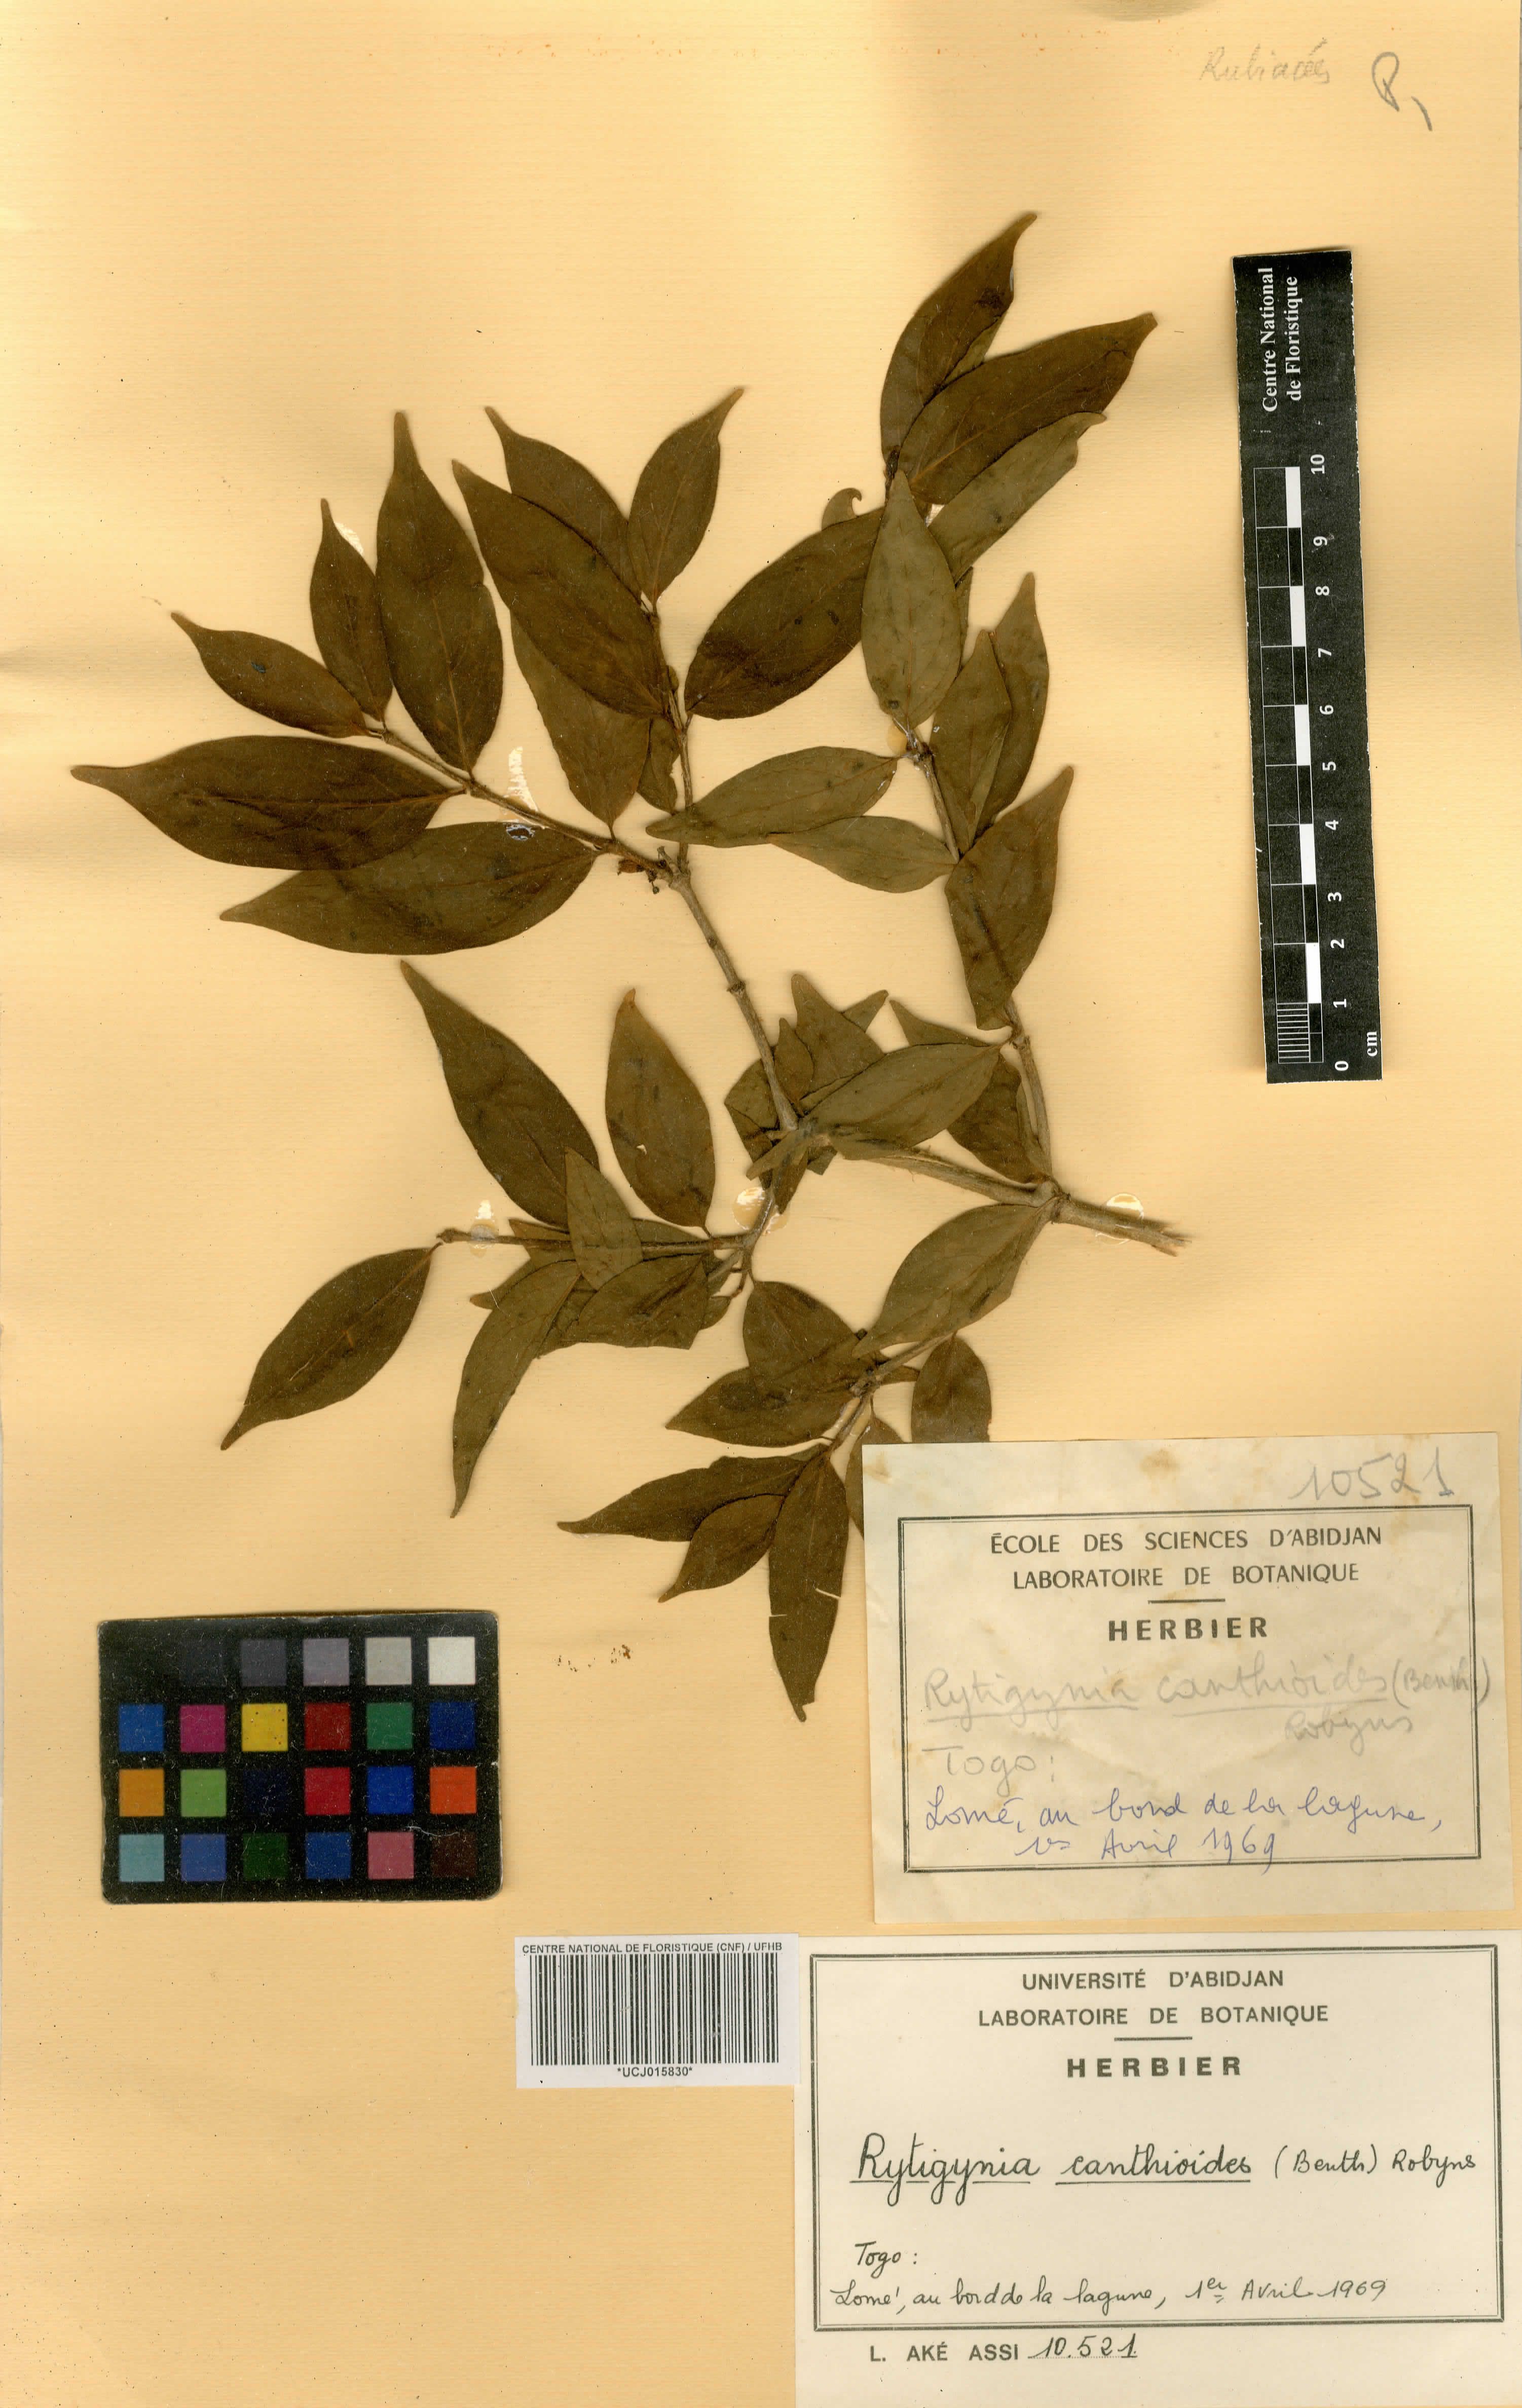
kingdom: Plantae
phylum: Tracheophyta
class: Magnoliopsida
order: Gentianales
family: Rubiaceae
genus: Rytigynia
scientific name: Rytigynia canthioides
